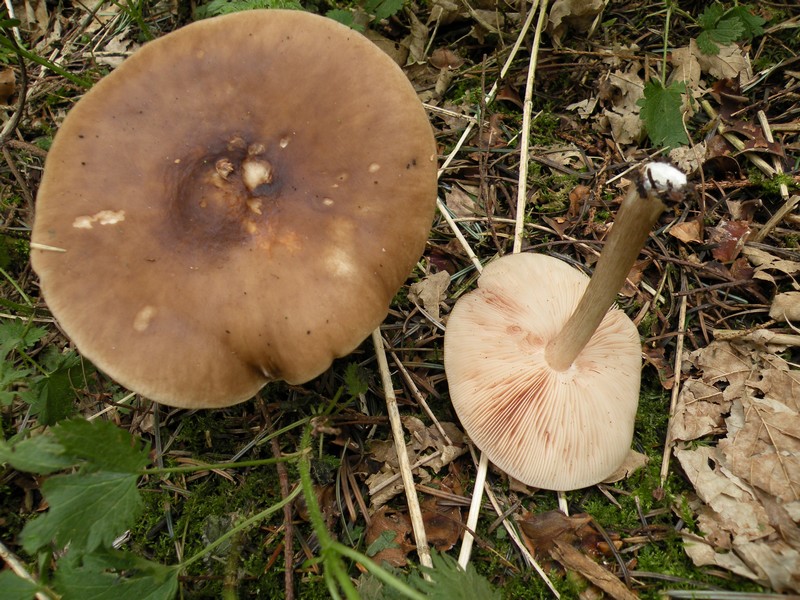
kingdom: Fungi
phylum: Basidiomycota
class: Agaricomycetes
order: Agaricales
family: Pluteaceae
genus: Pluteus
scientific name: Pluteus cervinus
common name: sodfarvet skærmhat
